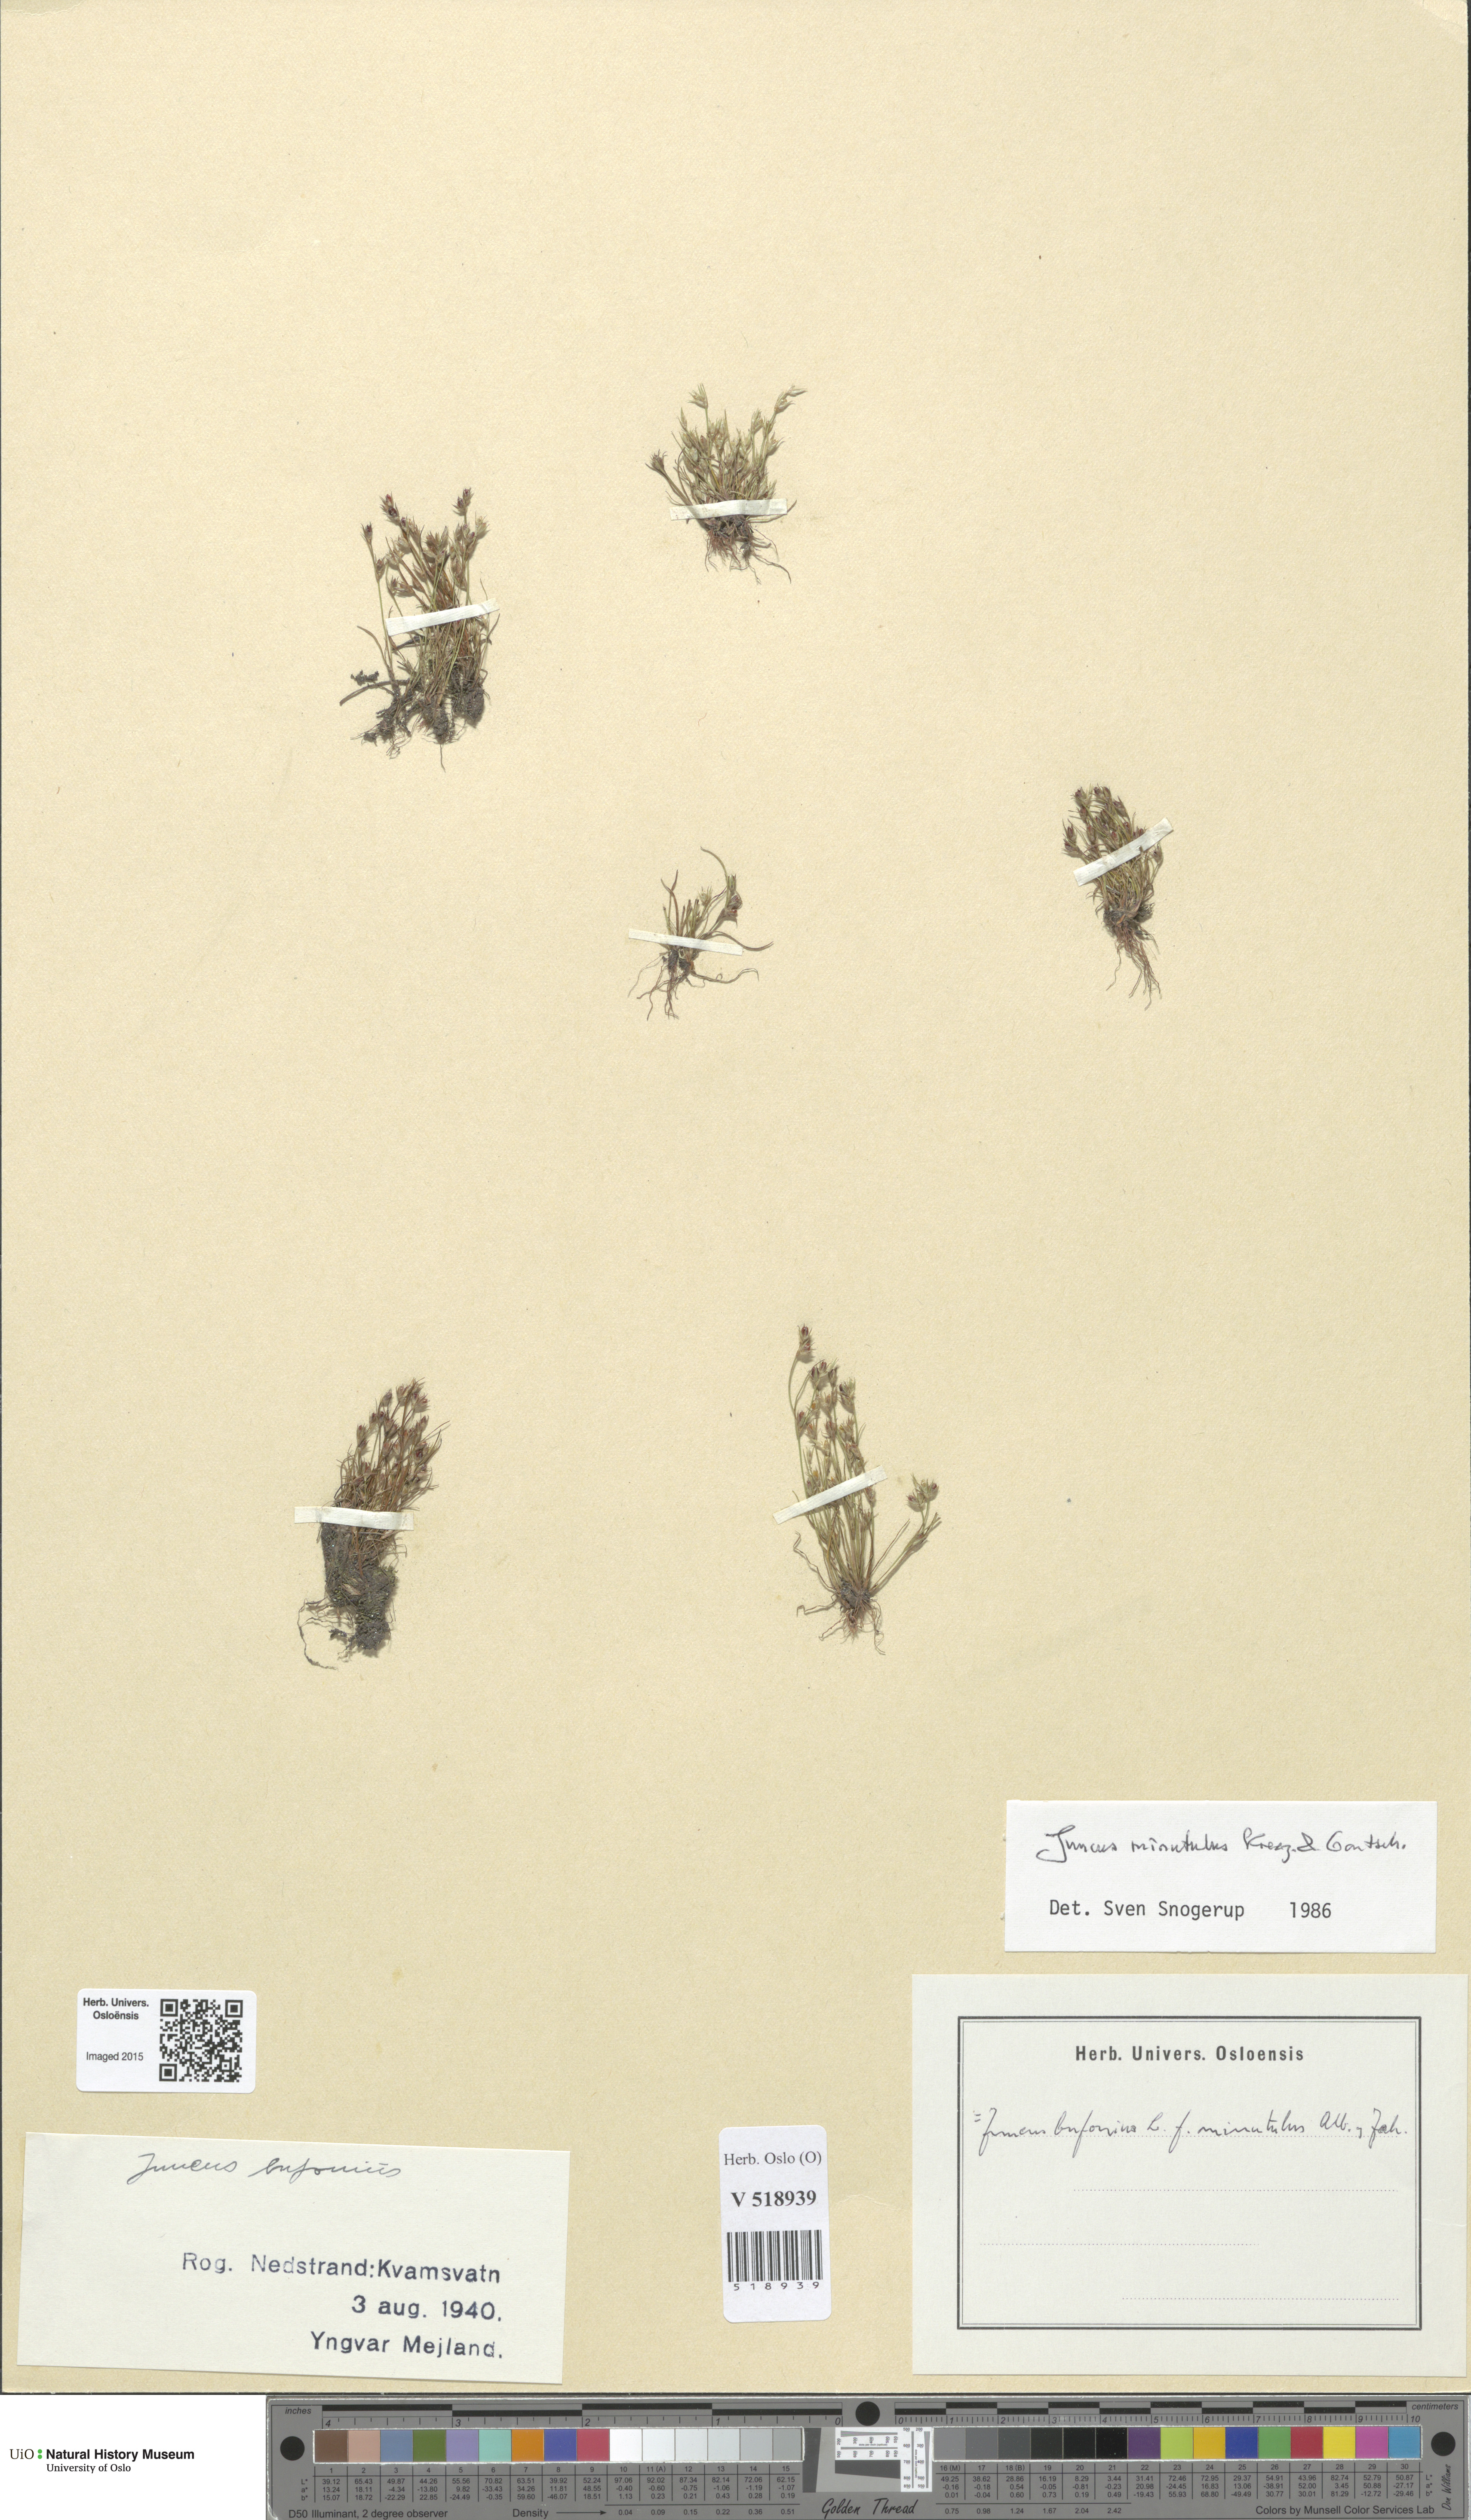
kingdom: Plantae
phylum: Tracheophyta
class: Liliopsida
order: Poales
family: Juncaceae
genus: Juncus
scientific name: Juncus minutulus
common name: Minute rush
